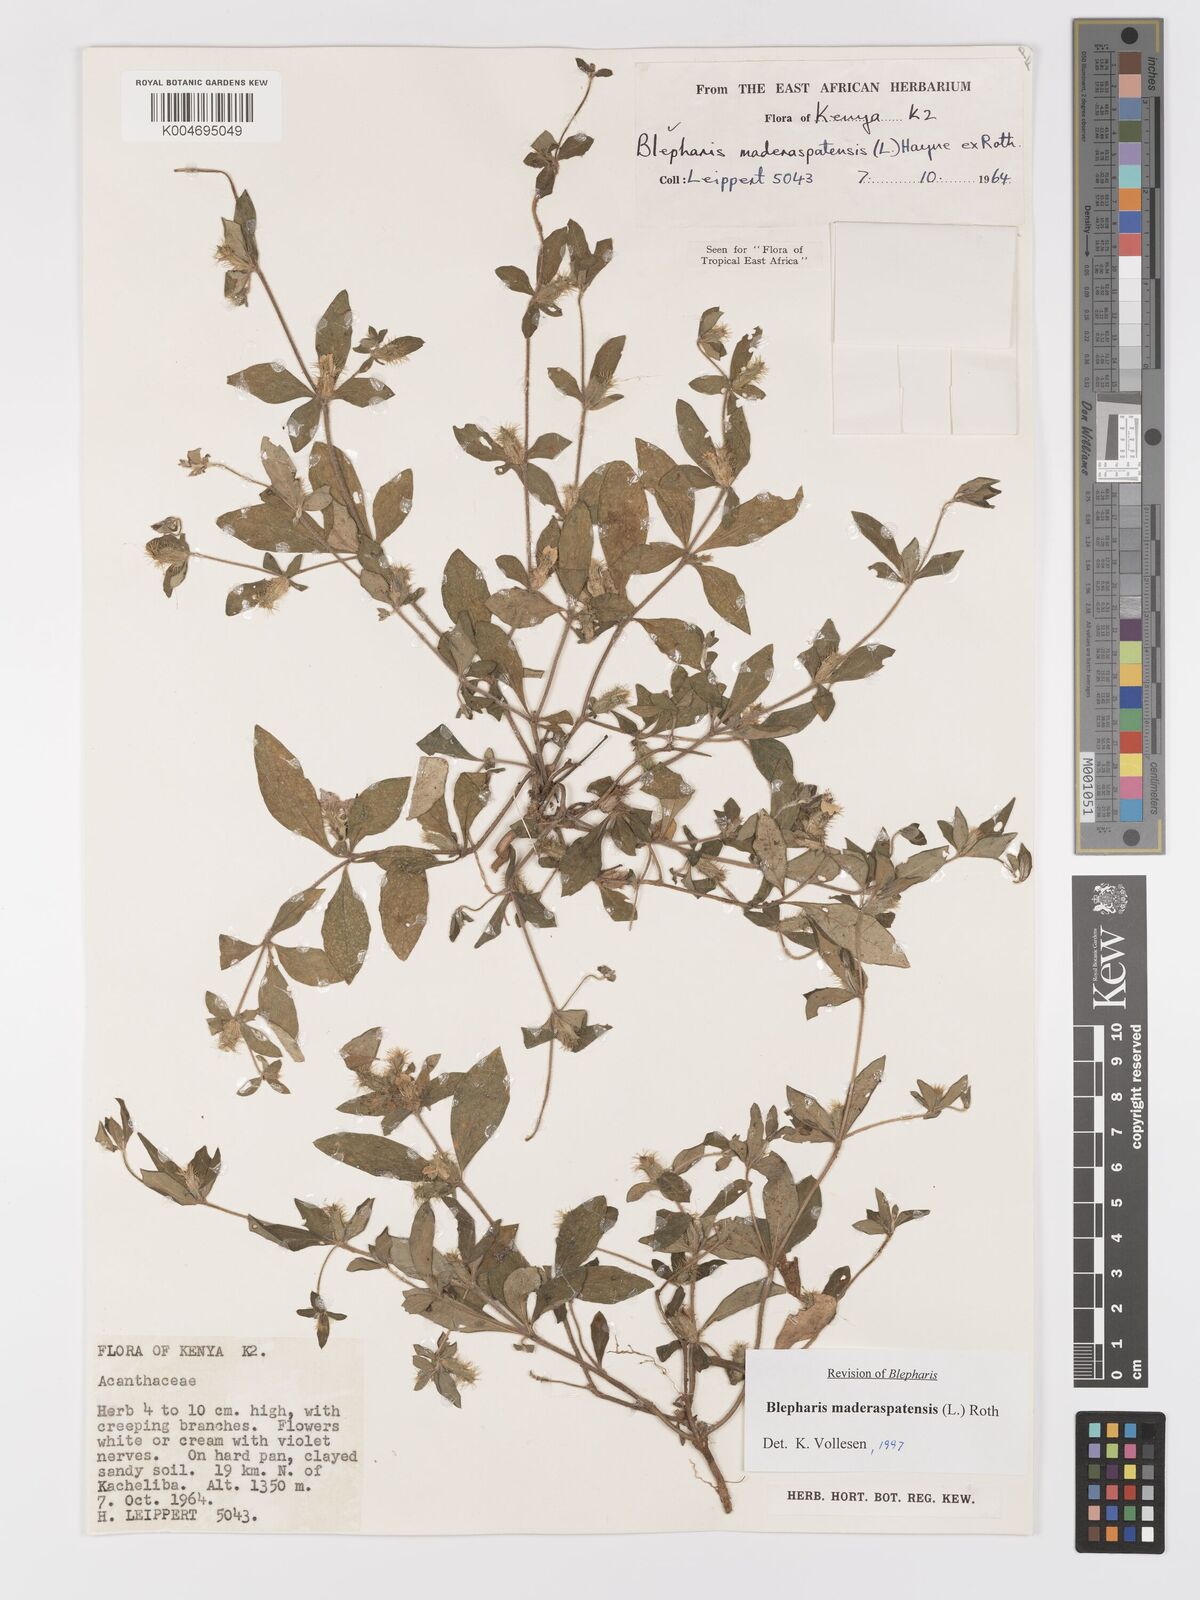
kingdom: Plantae
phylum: Tracheophyta
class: Magnoliopsida
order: Lamiales
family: Acanthaceae
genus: Blepharis
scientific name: Blepharis maderaspatensis
